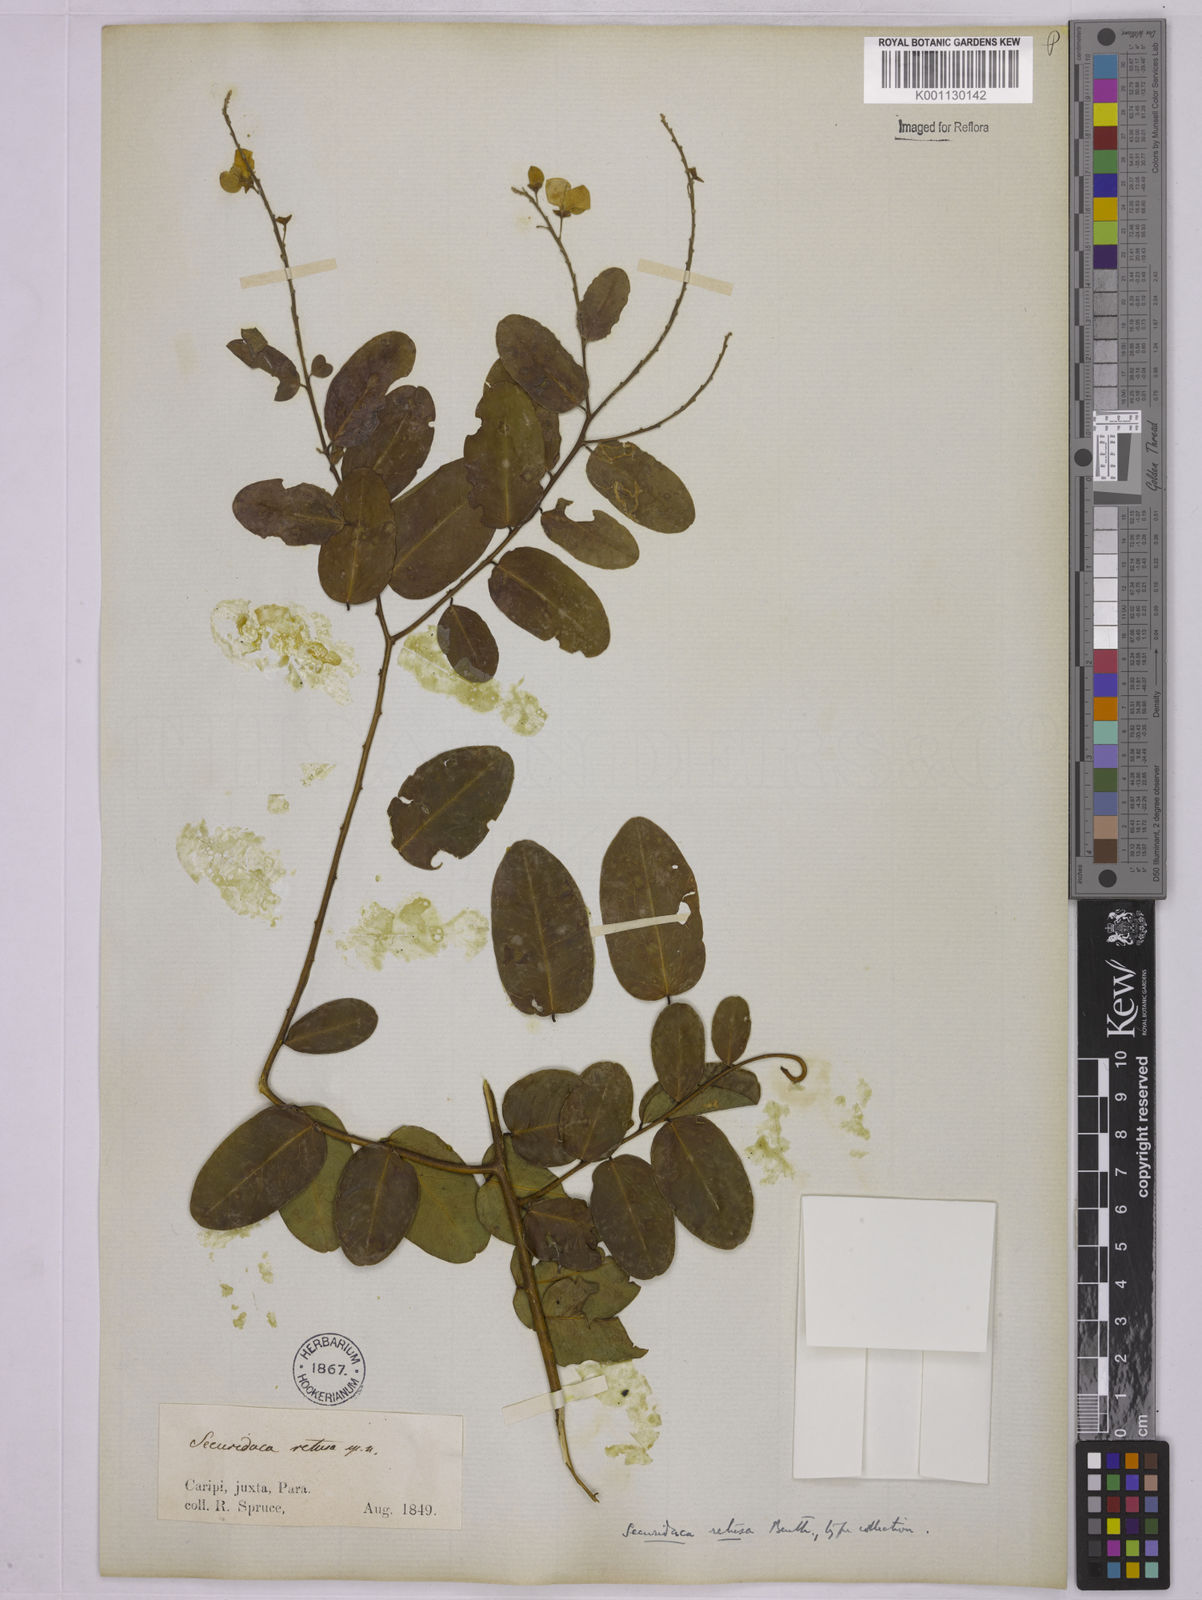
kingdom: Plantae
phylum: Tracheophyta
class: Magnoliopsida
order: Fabales
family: Polygalaceae
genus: Securidaca
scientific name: Securidaca retusa
